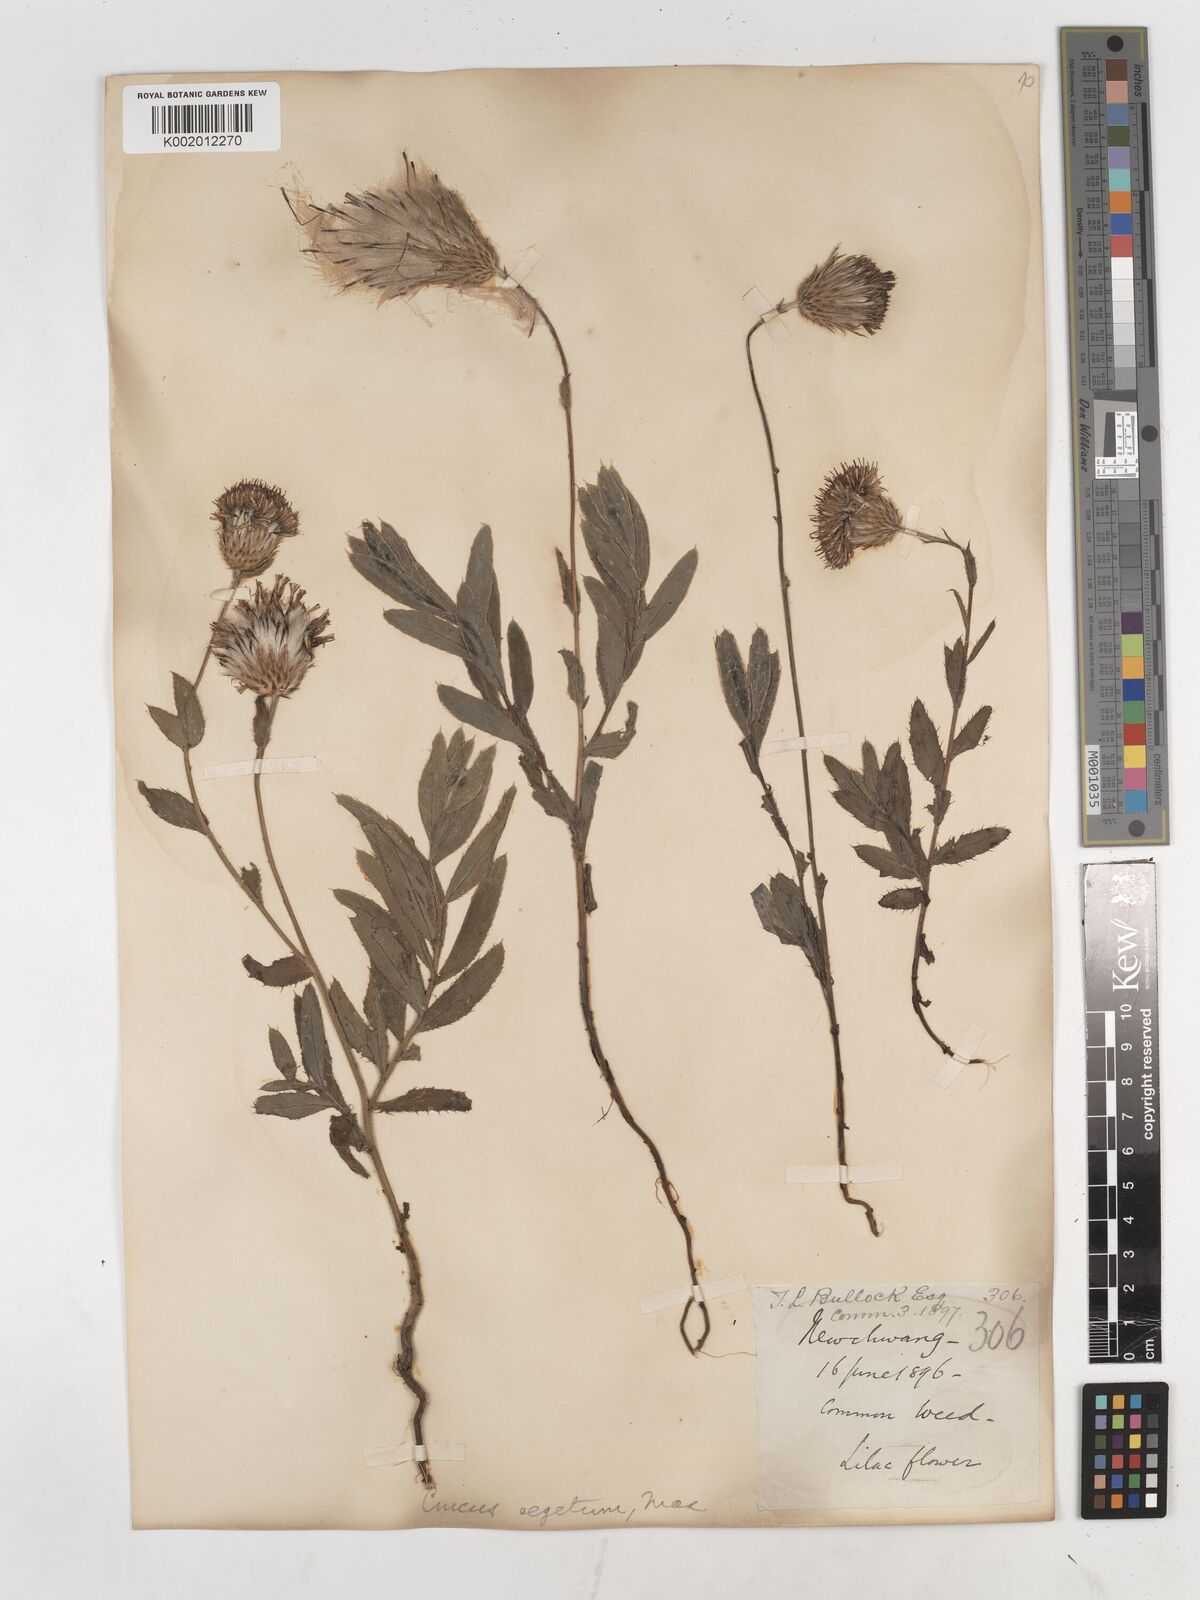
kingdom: Plantae
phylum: Tracheophyta
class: Magnoliopsida
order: Asterales
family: Asteraceae
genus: Cirsium
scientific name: Cirsium arvense
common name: Creeping thistle
